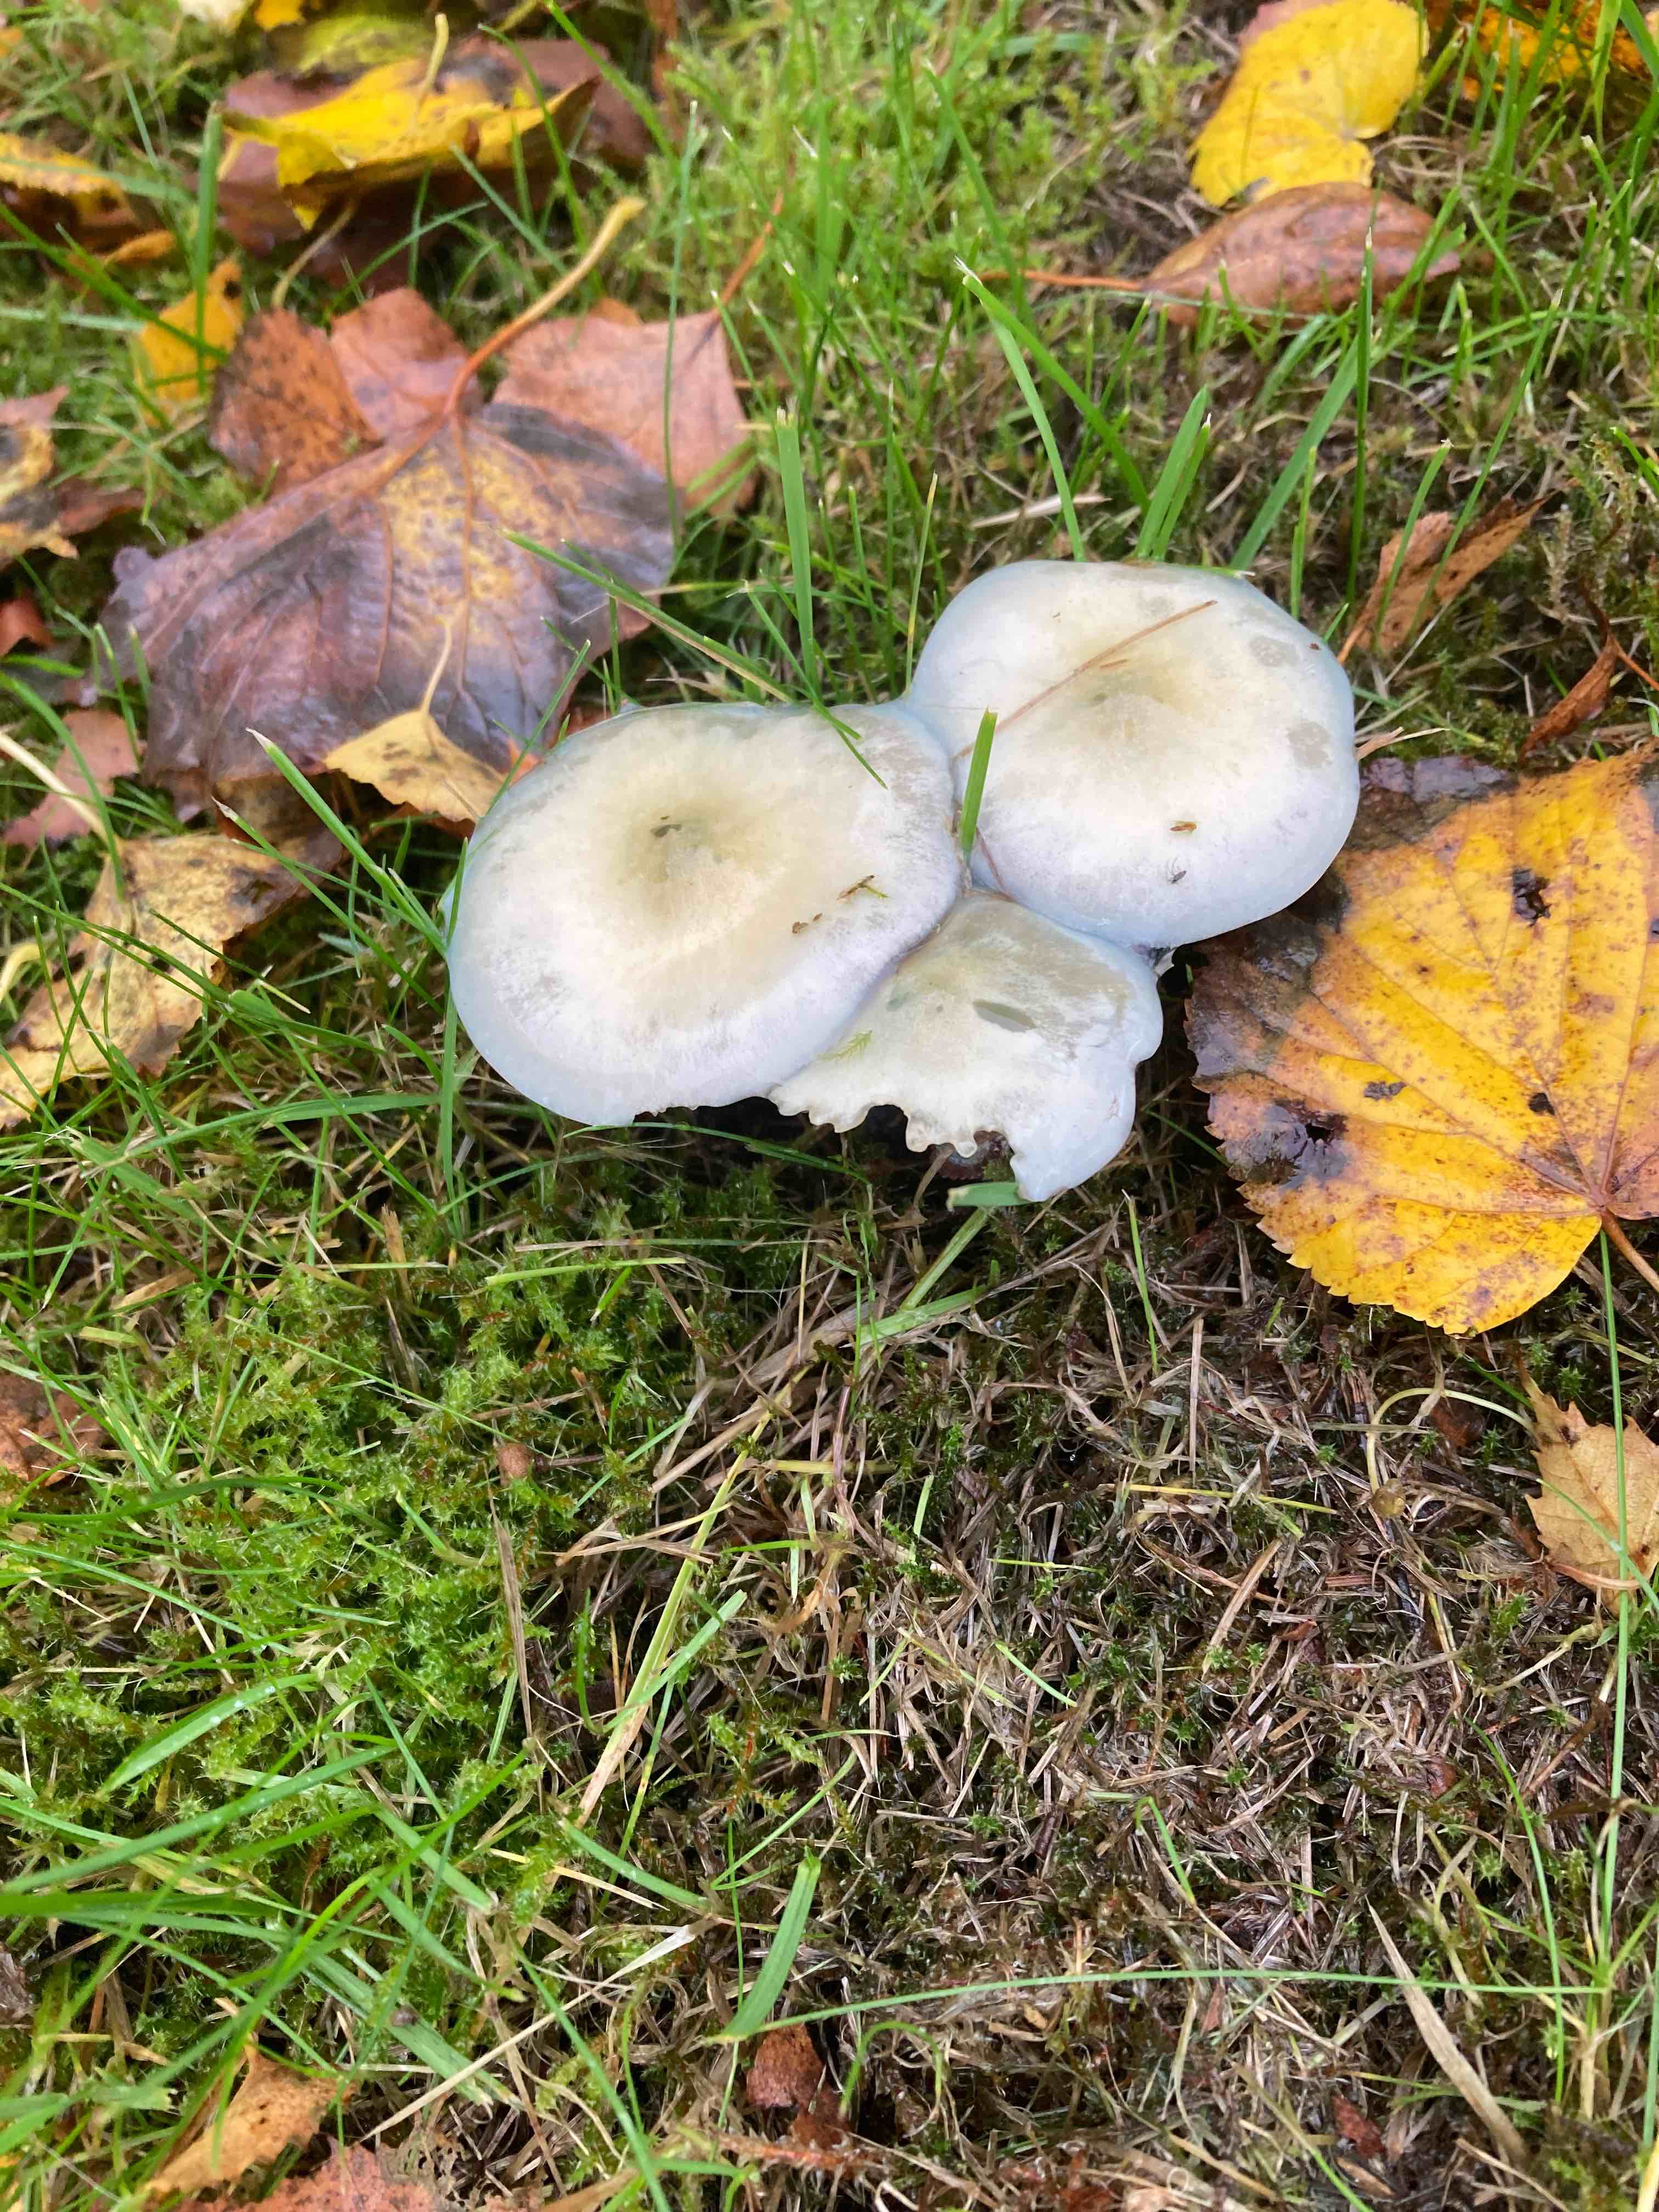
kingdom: Fungi
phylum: Basidiomycota
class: Agaricomycetes
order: Agaricales
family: Strophariaceae
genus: Stropharia
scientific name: Stropharia cyanea
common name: blågrøn bredblad
